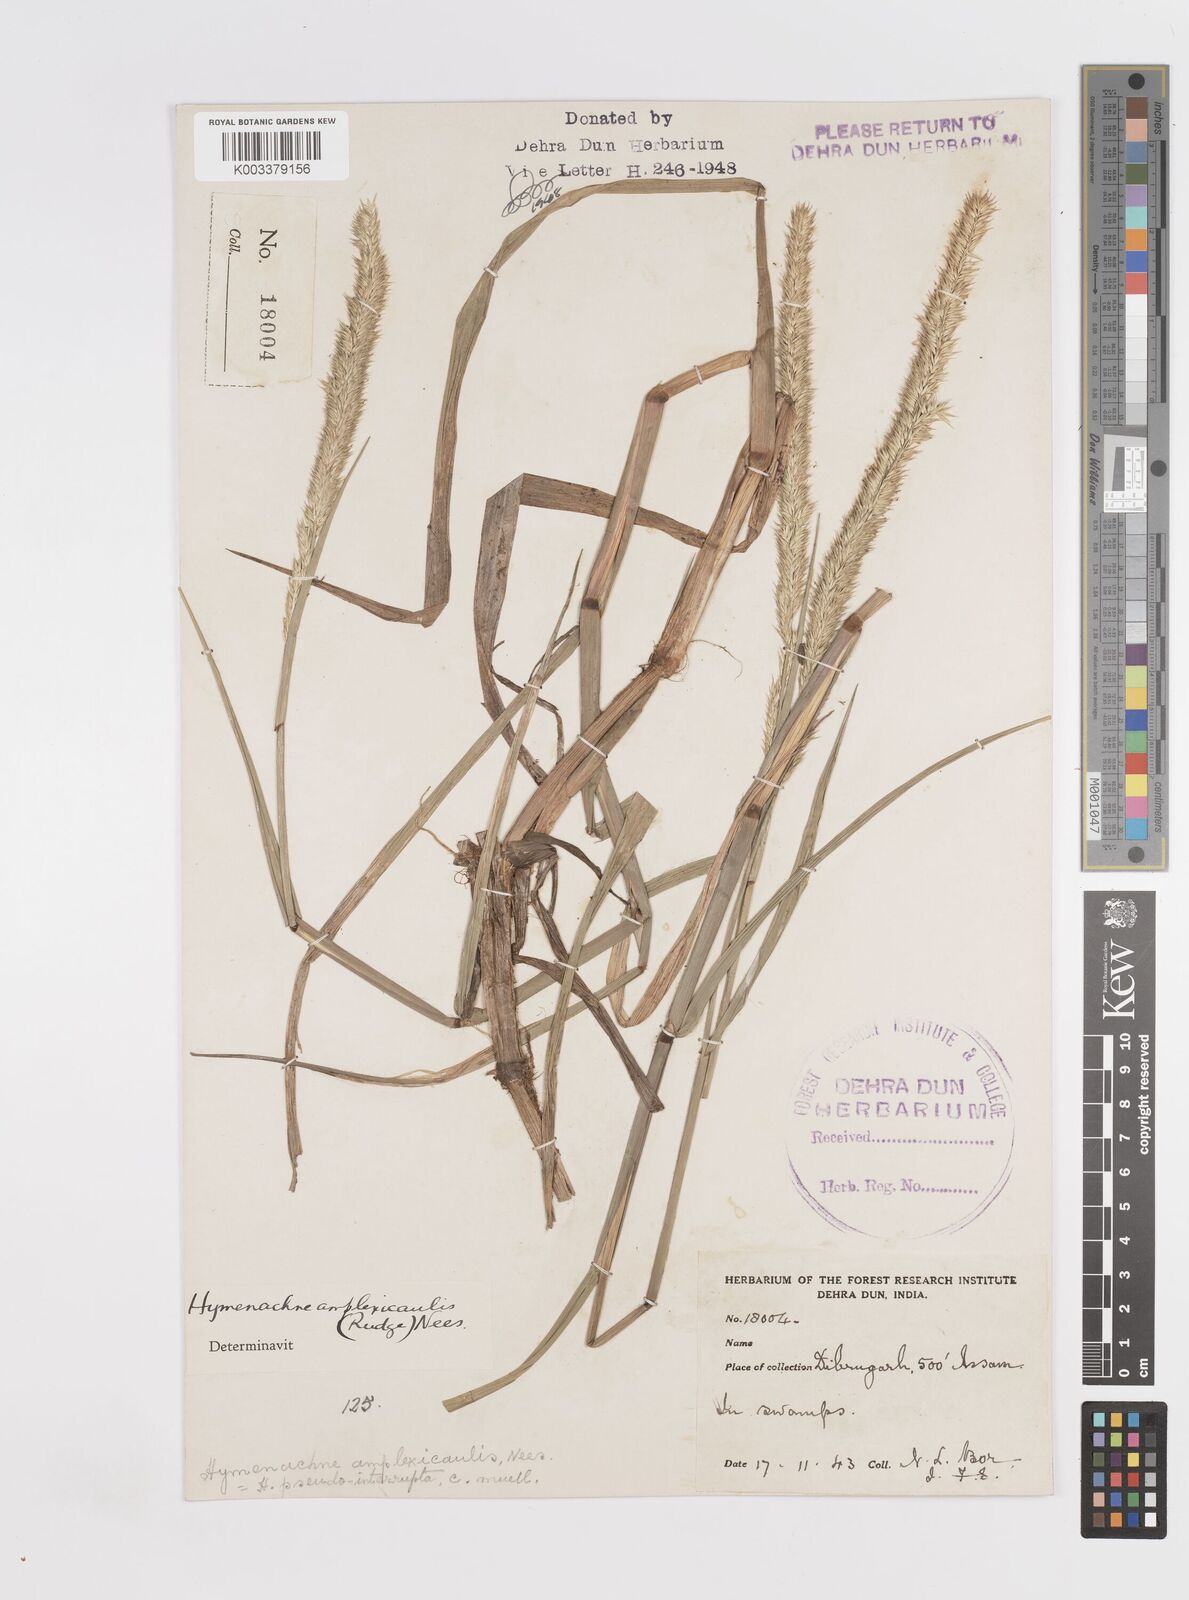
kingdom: Plantae
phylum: Tracheophyta
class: Liliopsida
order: Poales
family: Poaceae
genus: Hymenachne
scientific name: Hymenachne amplexicaulis
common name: Olive hymenachne
